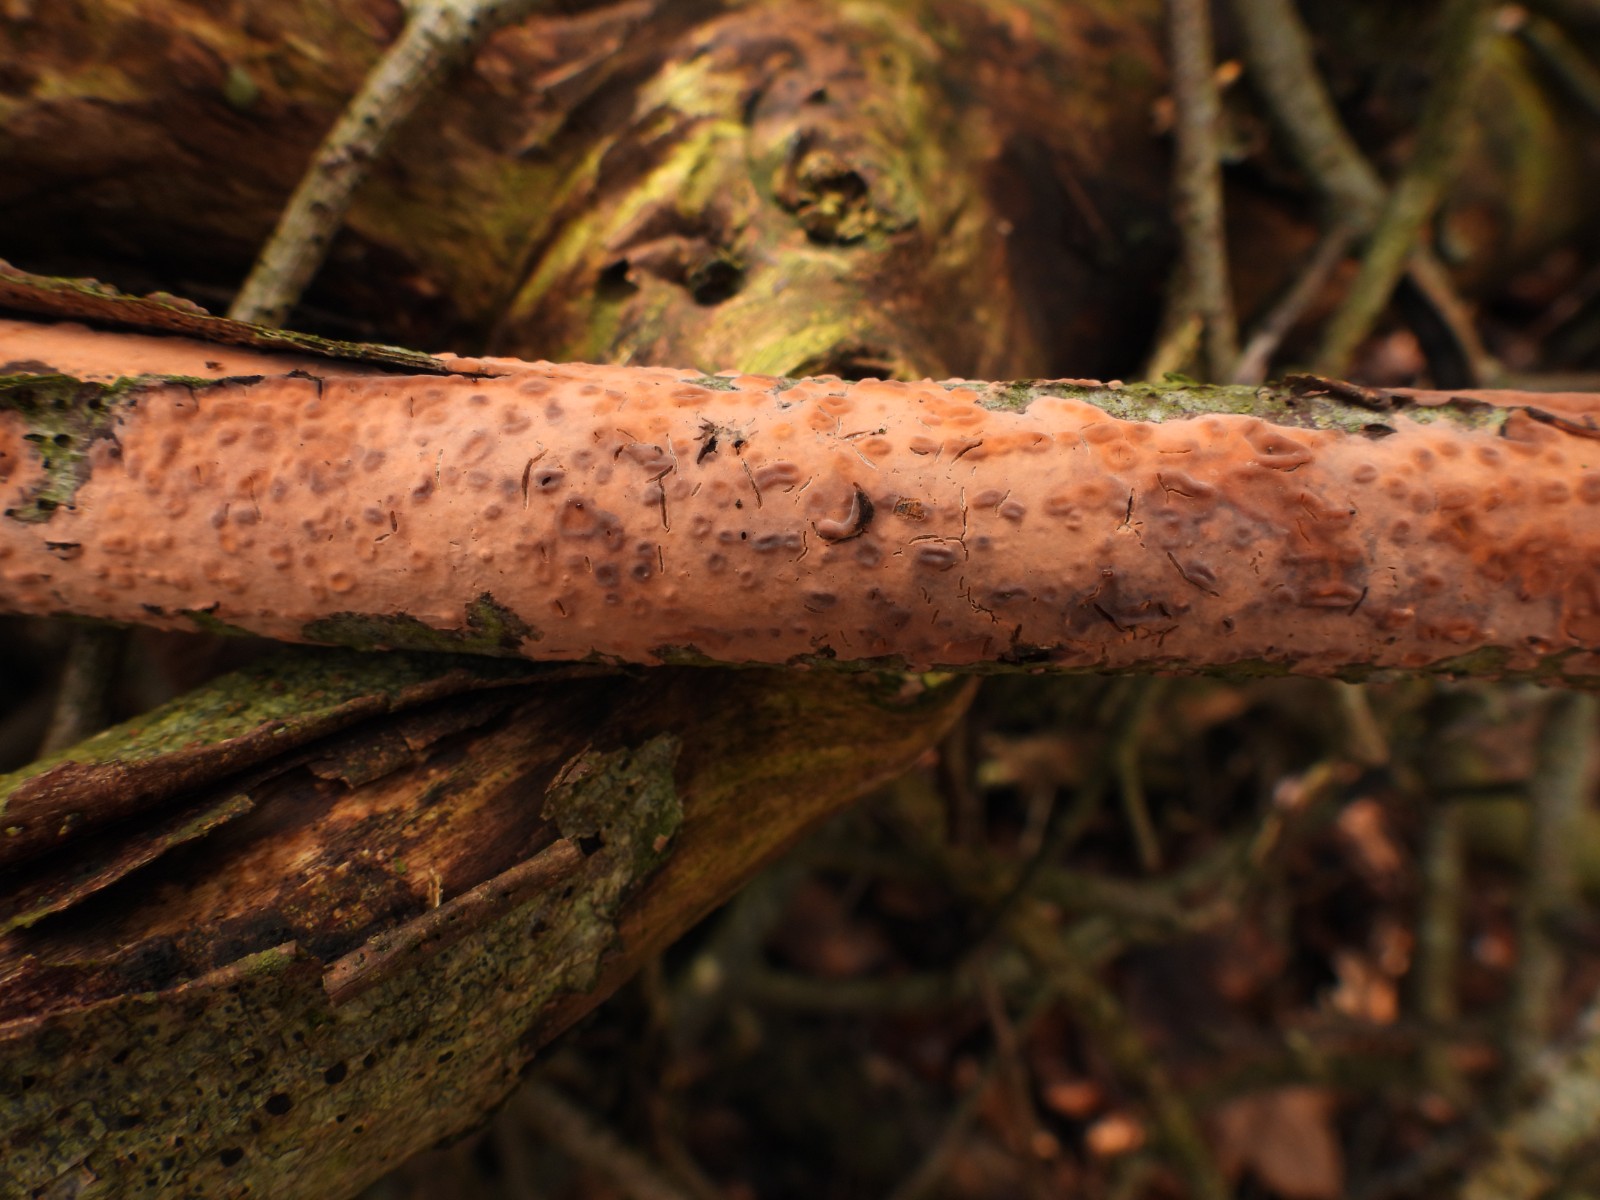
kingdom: Fungi
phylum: Basidiomycota
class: Agaricomycetes
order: Russulales
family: Peniophoraceae
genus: Peniophora
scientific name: Peniophora incarnata
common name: laksefarvet voksskind
